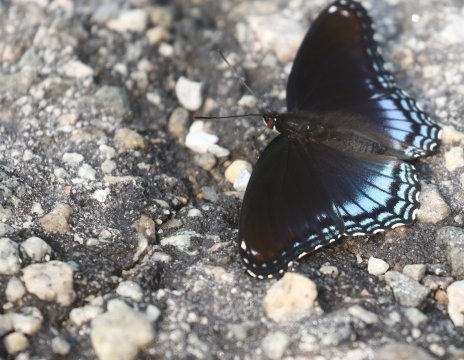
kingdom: Animalia
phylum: Arthropoda
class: Insecta
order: Lepidoptera
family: Nymphalidae
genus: Limenitis
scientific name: Limenitis arthemis
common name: Red-spotted Admiral
